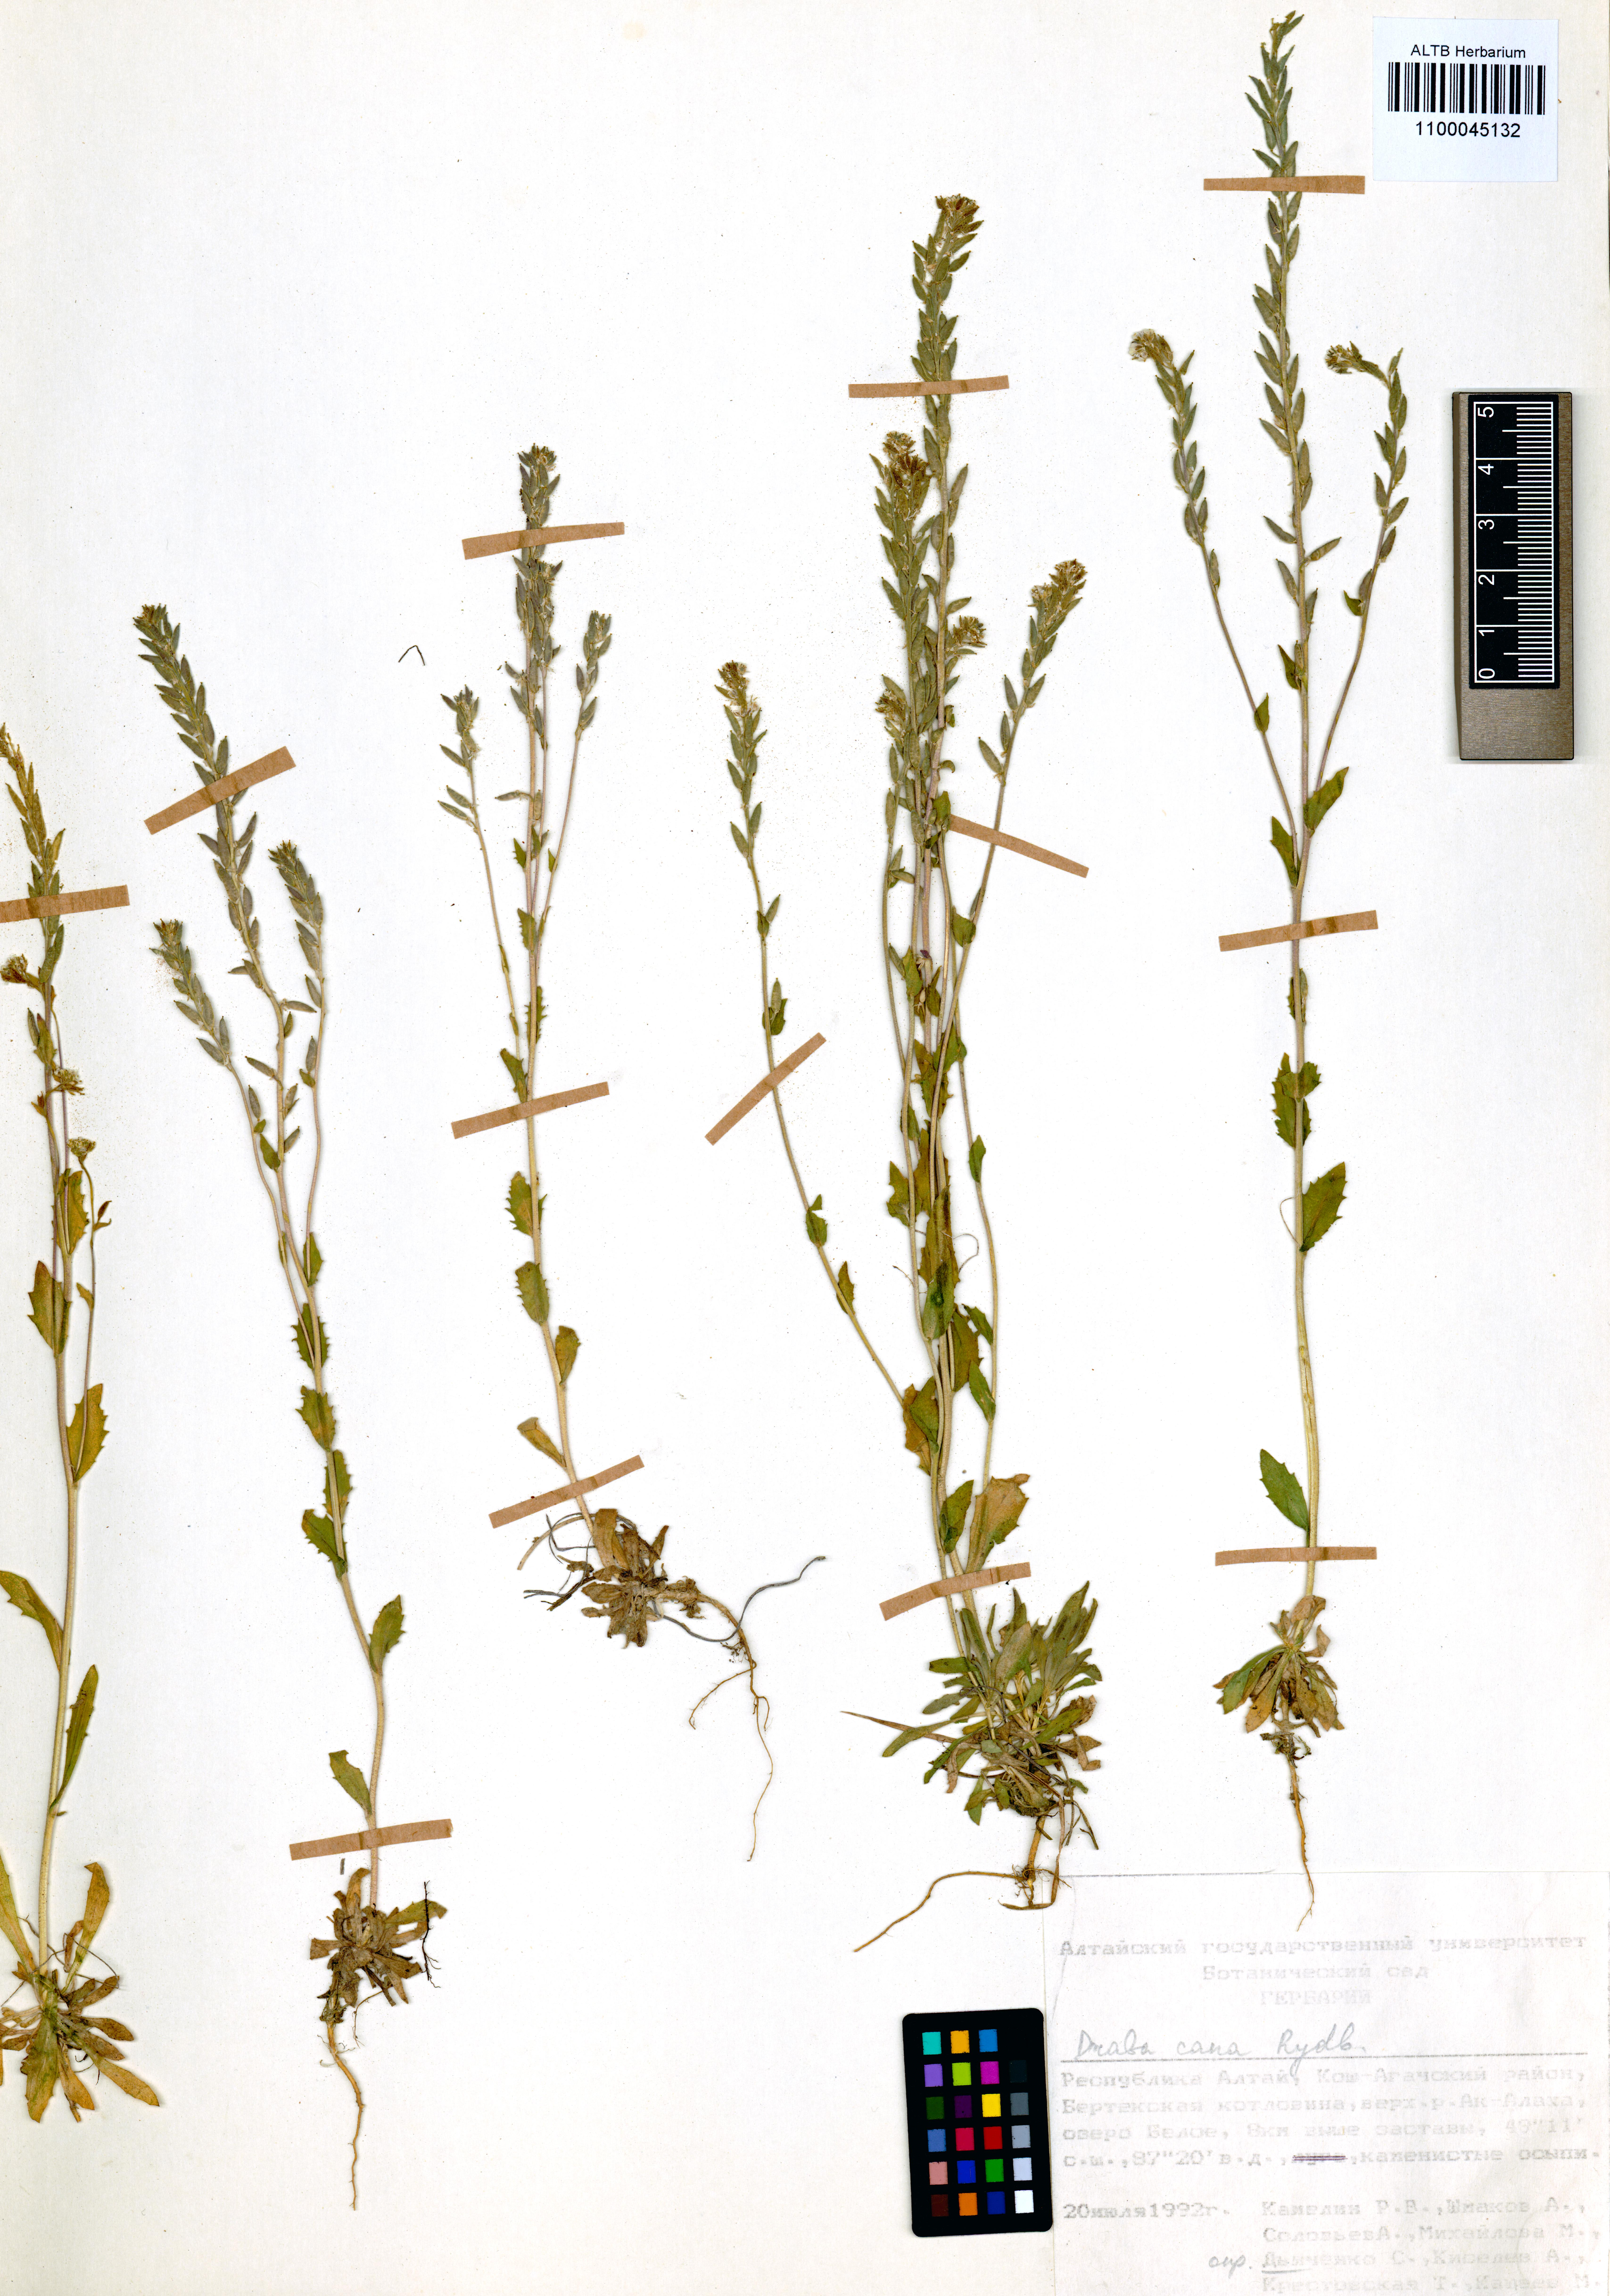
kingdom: Plantae
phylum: Tracheophyta
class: Magnoliopsida
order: Brassicales
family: Brassicaceae
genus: Draba
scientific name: Draba cana
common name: Hoary draba
